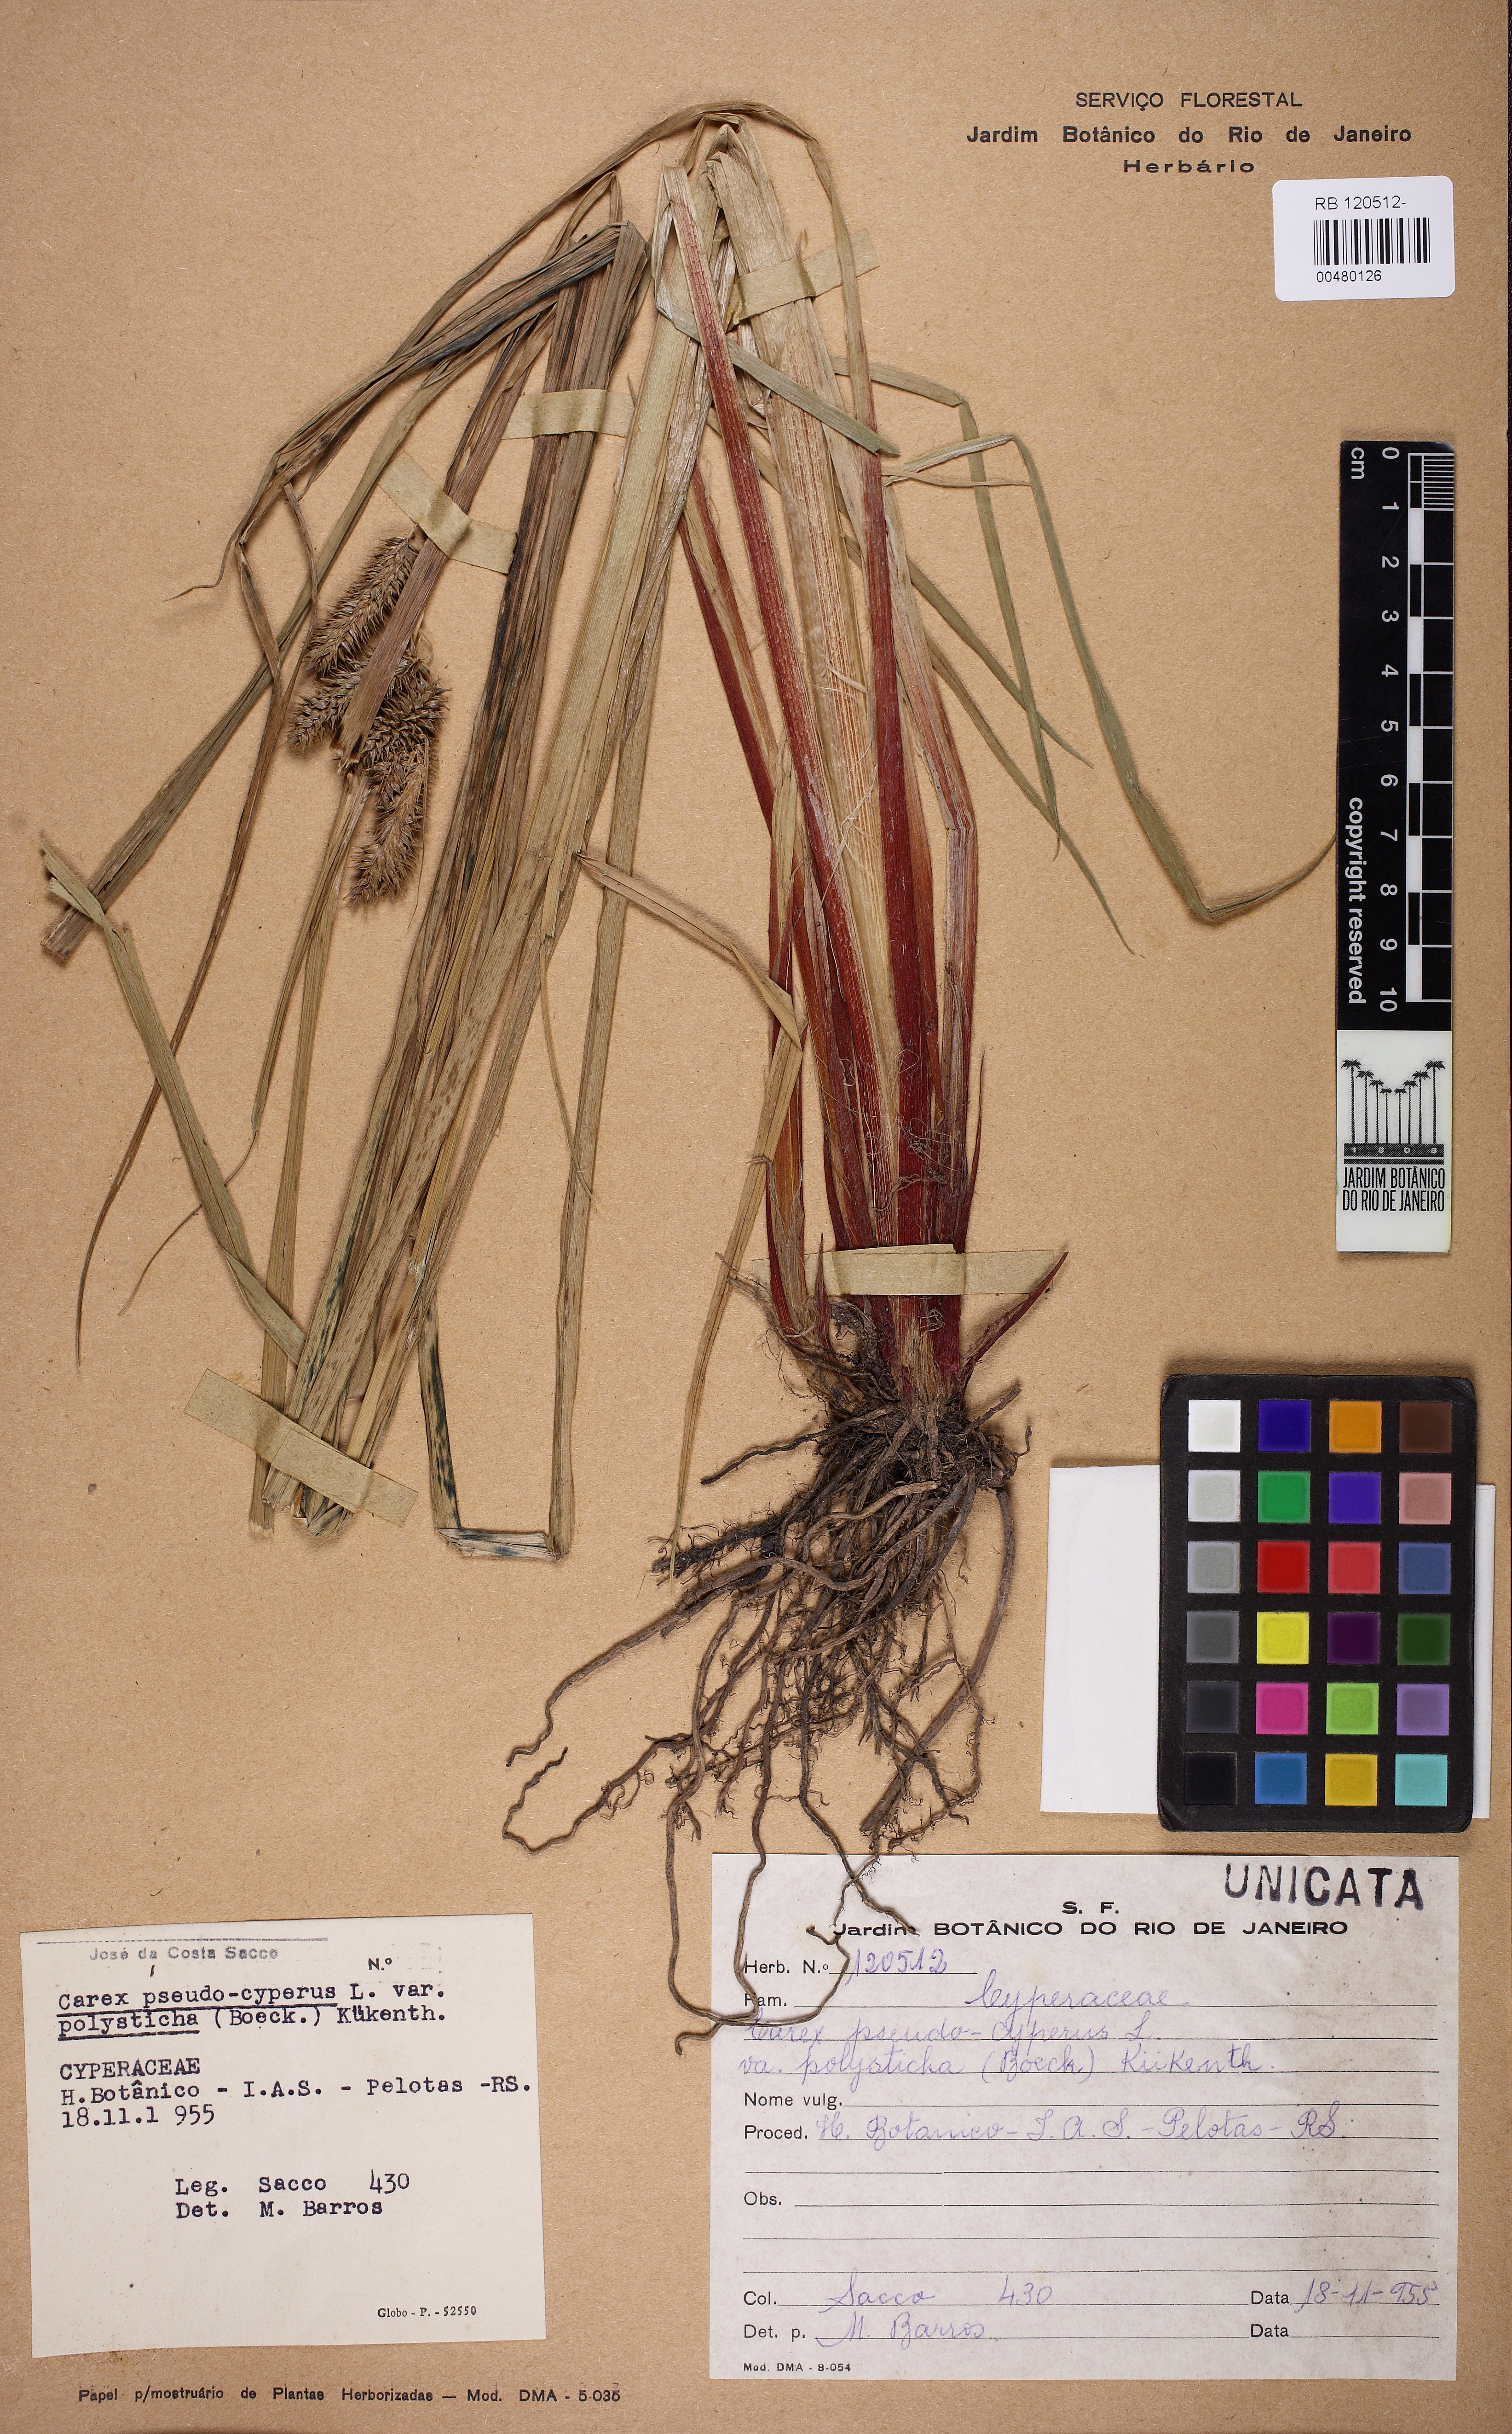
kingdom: Plantae
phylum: Tracheophyta
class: Liliopsida
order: Poales
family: Cyperaceae
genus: Carex
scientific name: Carex polysticha
